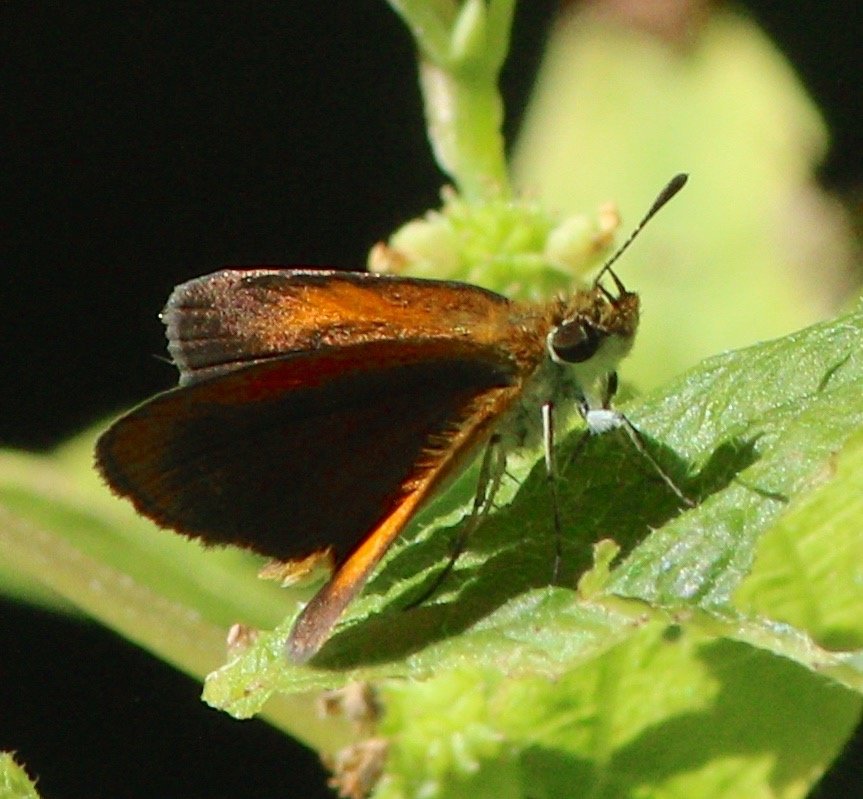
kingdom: Animalia
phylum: Arthropoda
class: Insecta
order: Lepidoptera
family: Hesperiidae
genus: Ancyloxypha
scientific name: Ancyloxypha numitor
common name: Least Skipper
